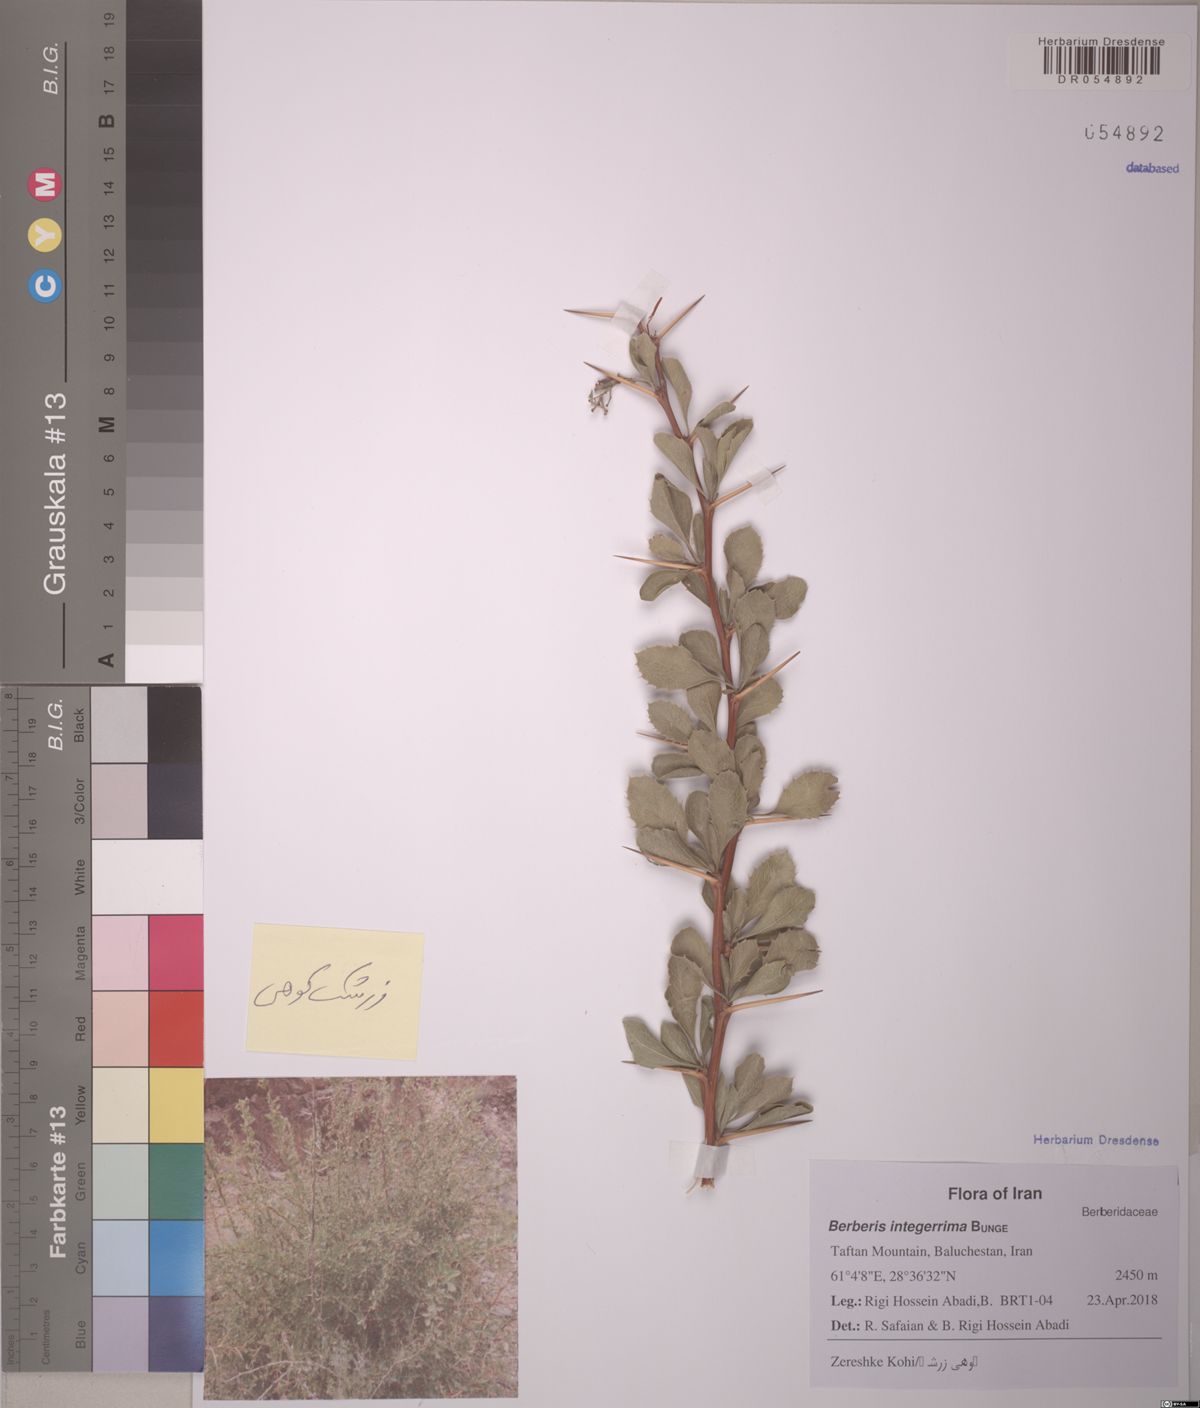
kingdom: Plantae
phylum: Tracheophyta
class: Magnoliopsida
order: Ranunculales
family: Berberidaceae
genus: Berberis
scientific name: Berberis integerrima
